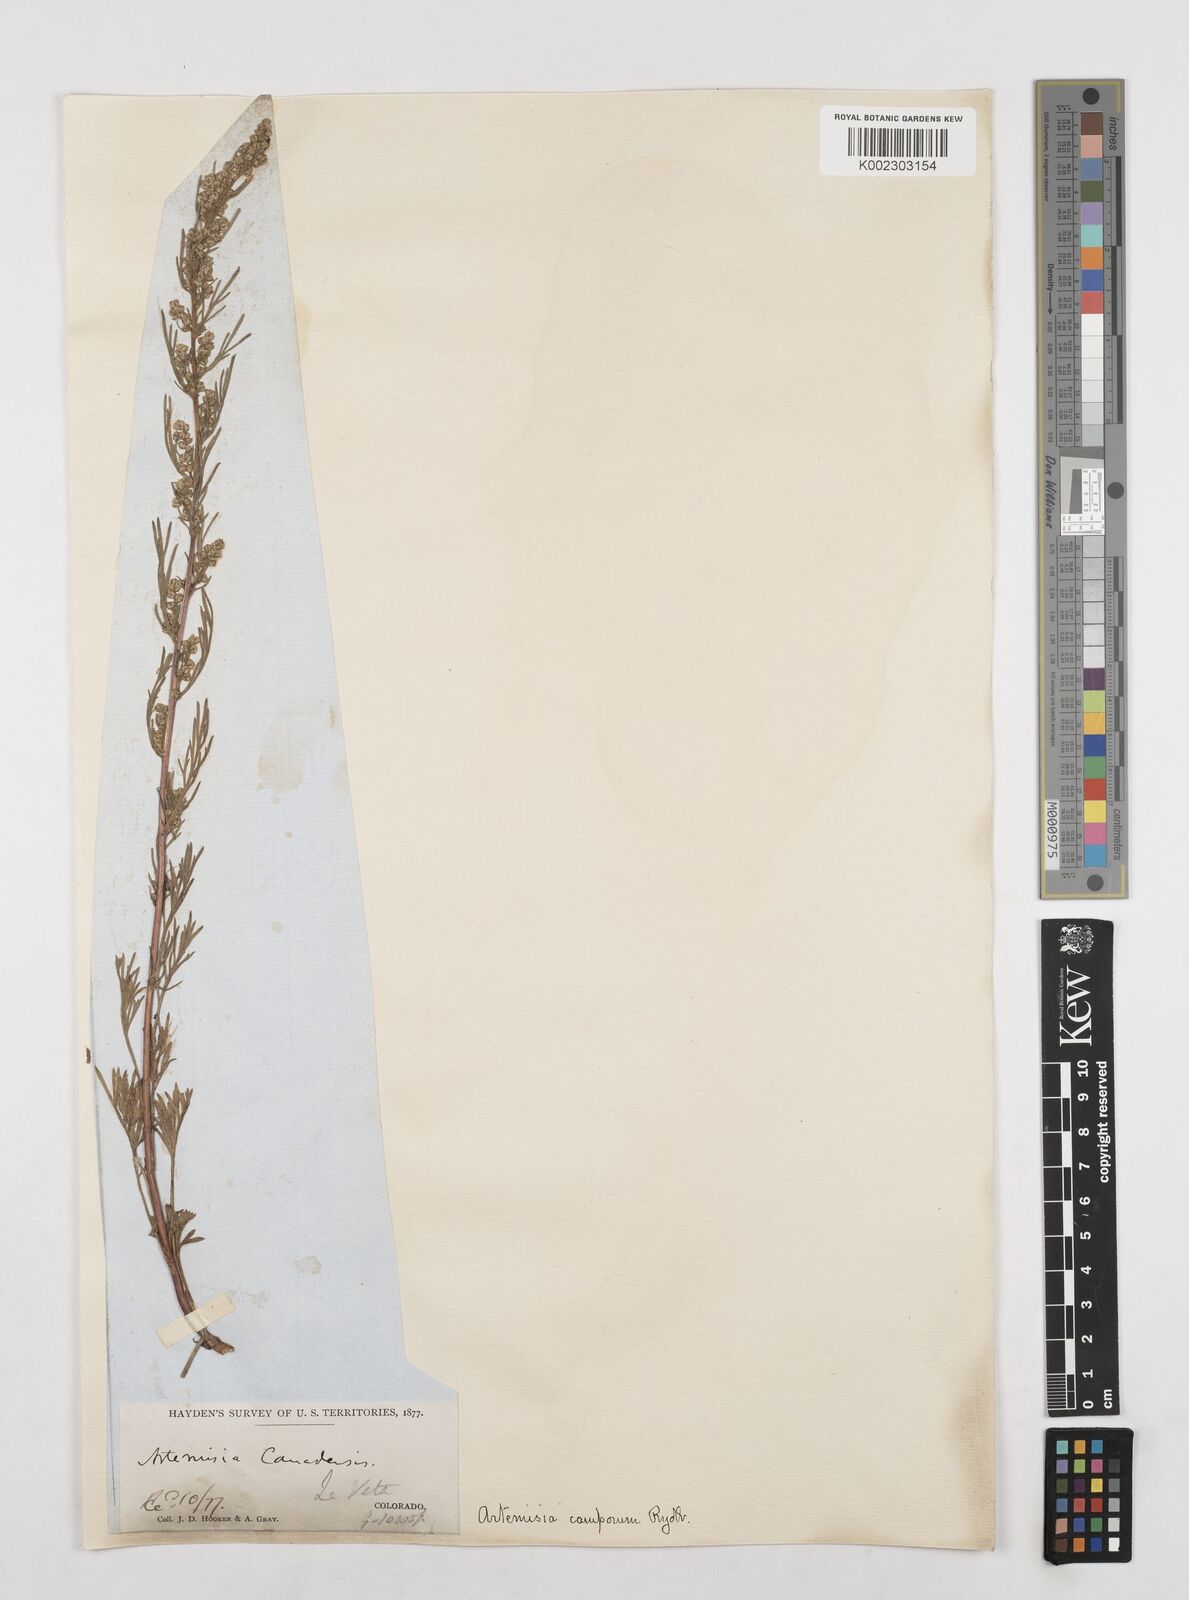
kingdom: Plantae
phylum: Tracheophyta
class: Magnoliopsida
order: Asterales
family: Asteraceae
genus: Artemisia
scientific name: Artemisia campestris
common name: Field wormwood
